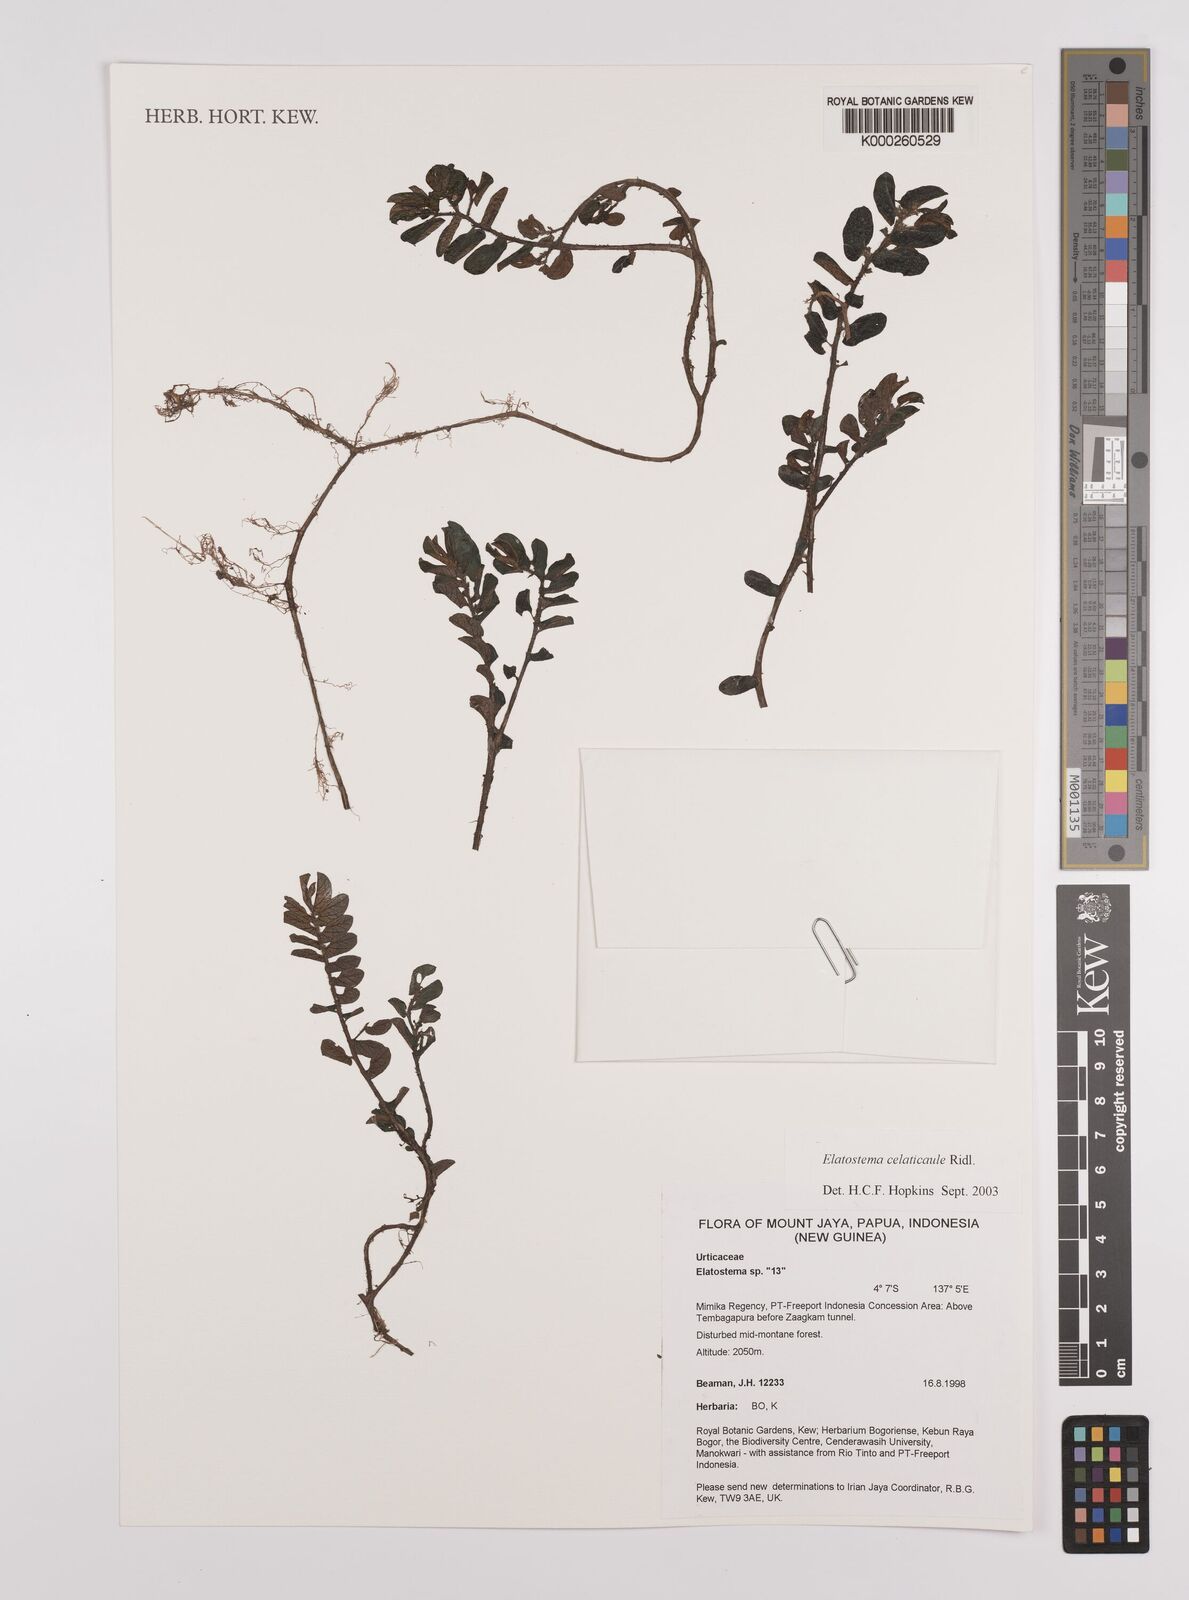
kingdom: Plantae
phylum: Tracheophyta
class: Magnoliopsida
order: Rosales
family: Urticaceae
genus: Elatostema
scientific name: Elatostema celaticaule
